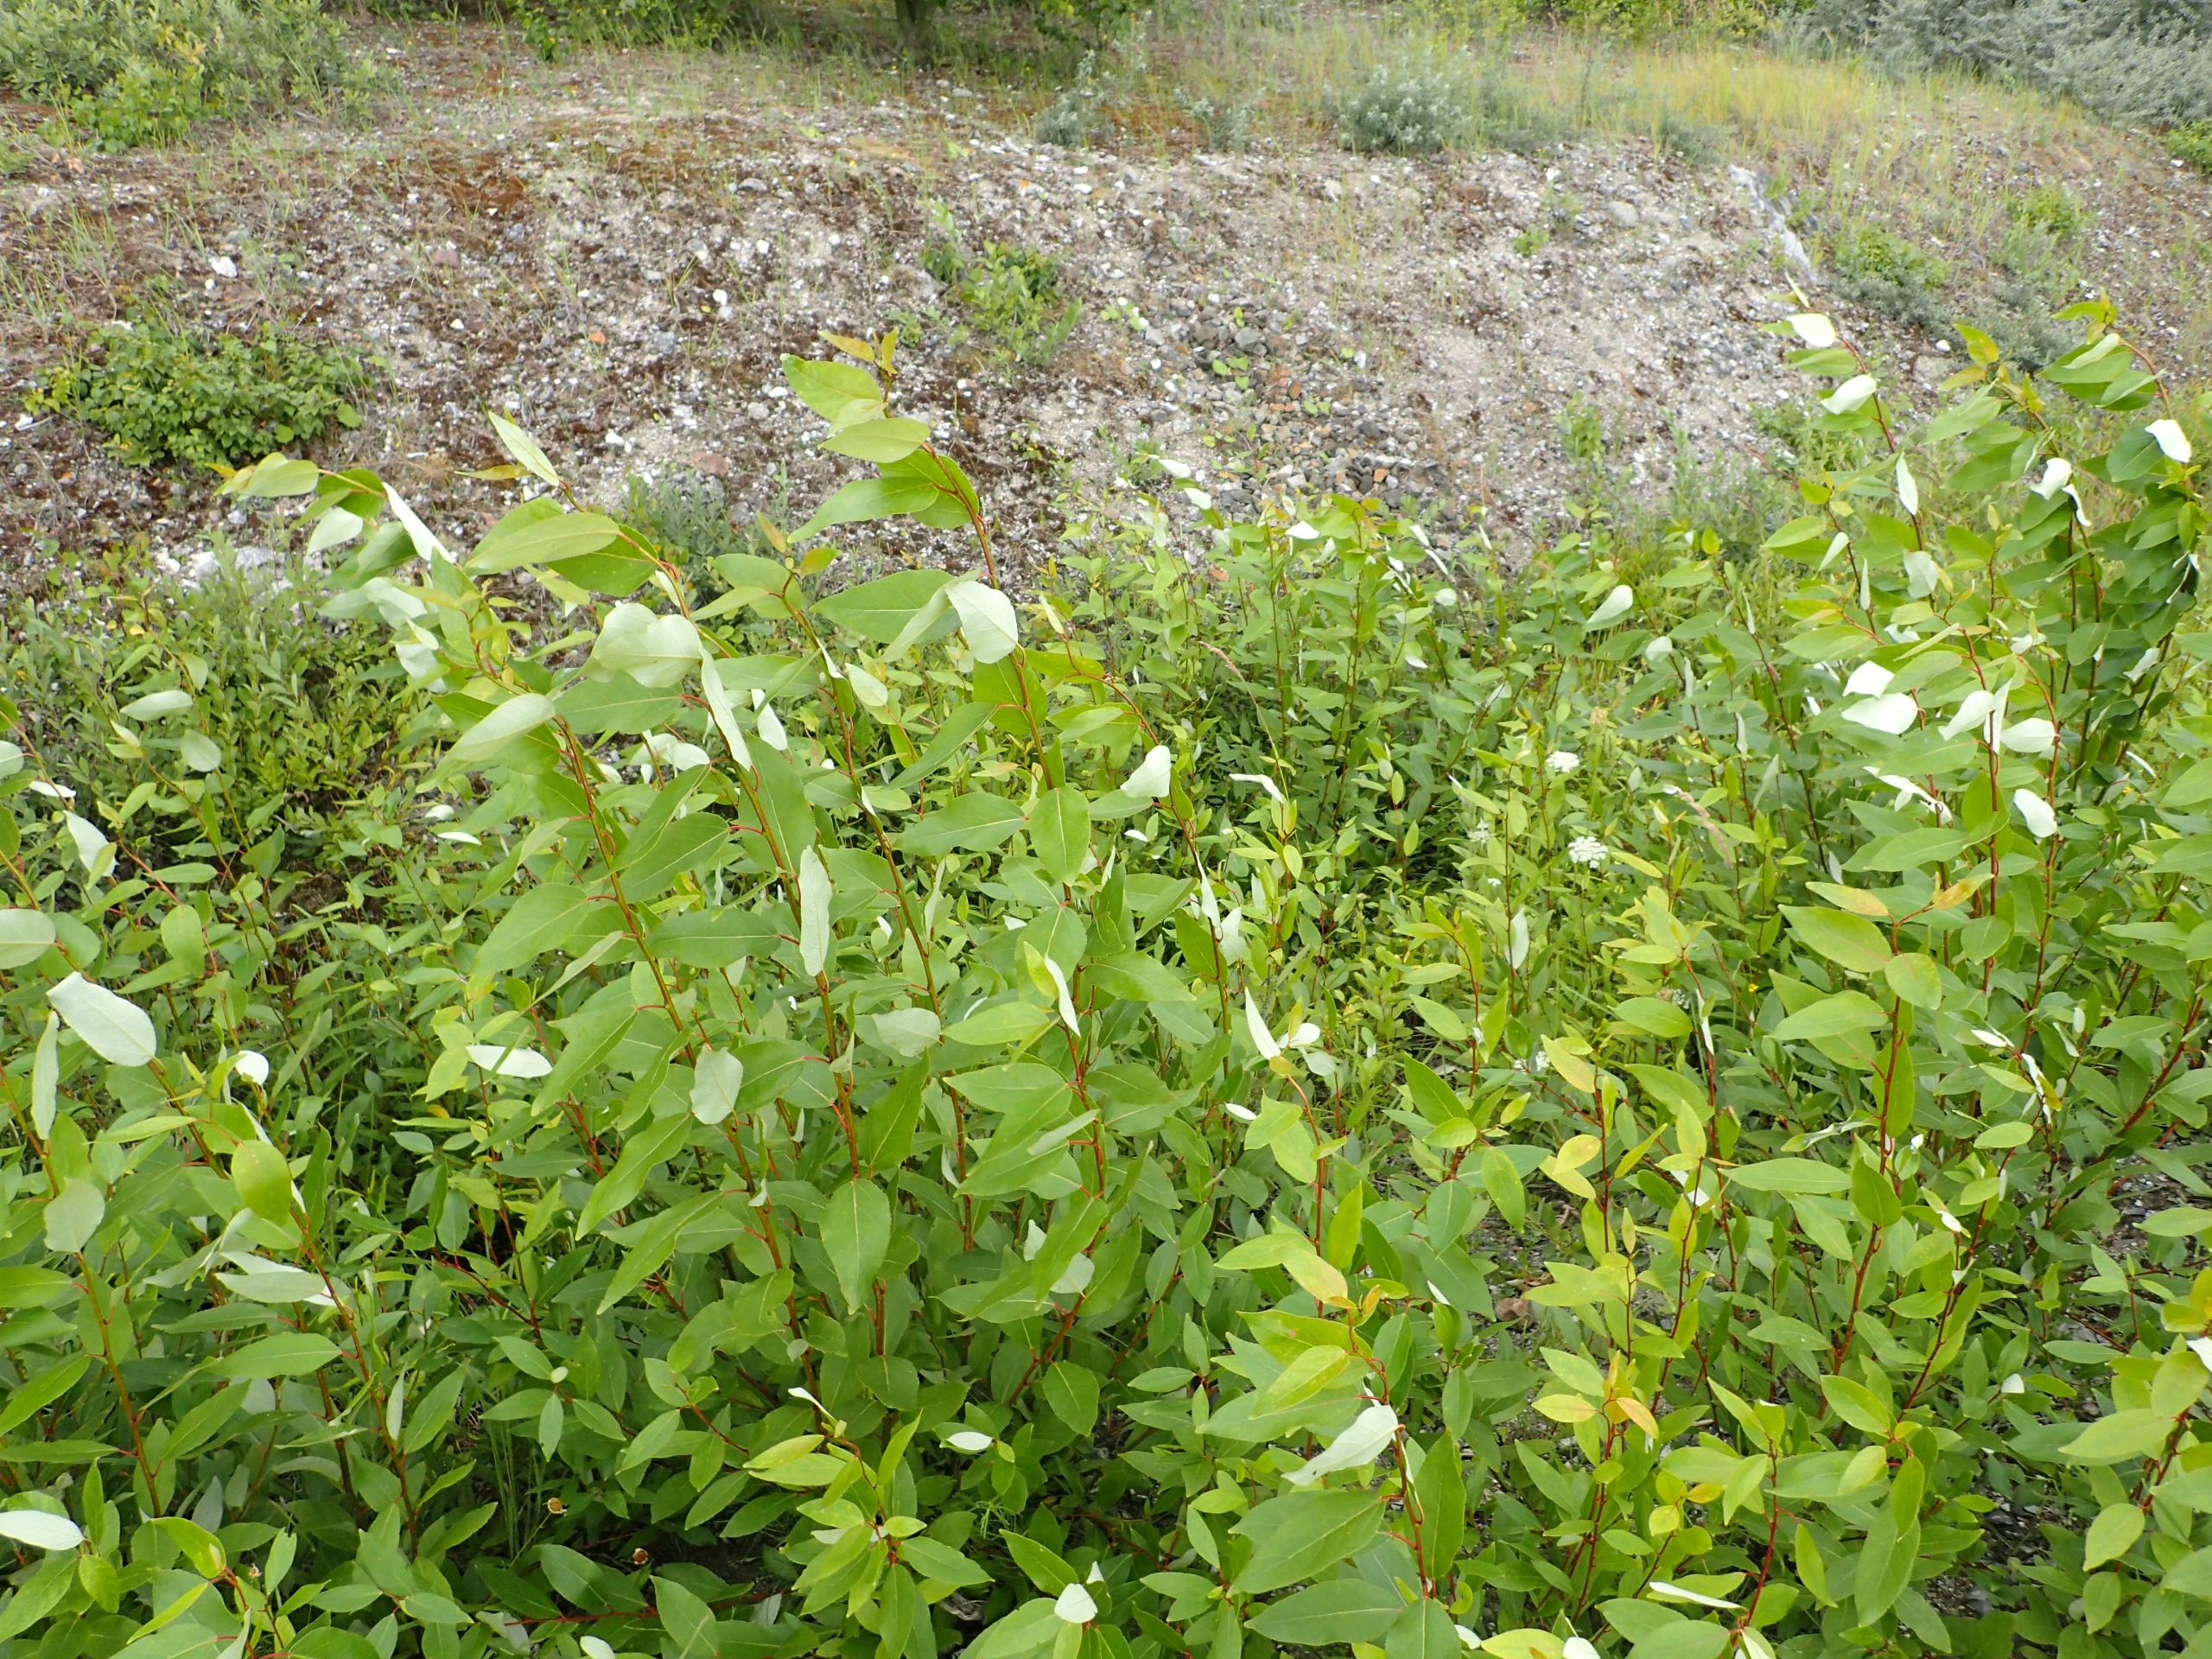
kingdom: Plantae
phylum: Tracheophyta
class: Magnoliopsida
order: Malpighiales
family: Salicaceae
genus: Populus
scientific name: Populus balsamifera
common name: Balsam-poppel
